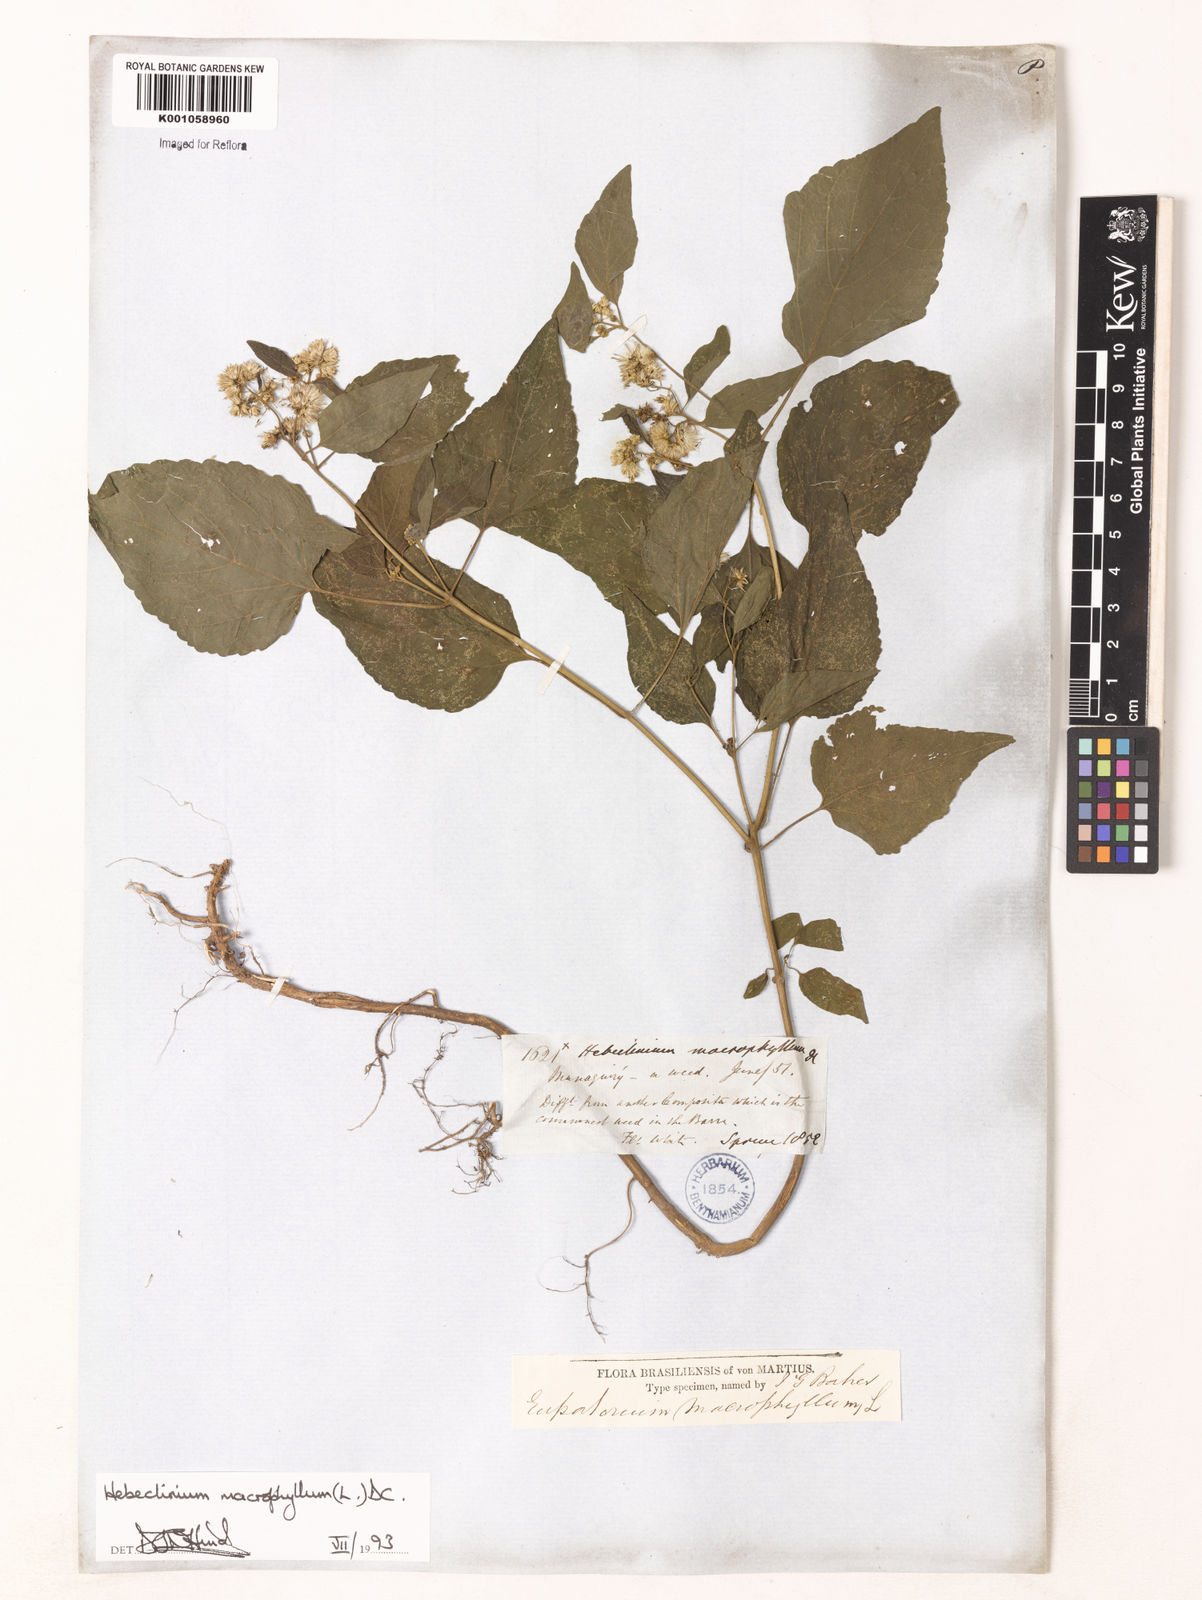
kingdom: Plantae
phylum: Tracheophyta
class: Magnoliopsida
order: Asterales
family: Asteraceae
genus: Hebeclinium
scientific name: Hebeclinium macrophyllum
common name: Largeleaf thoroughwort
